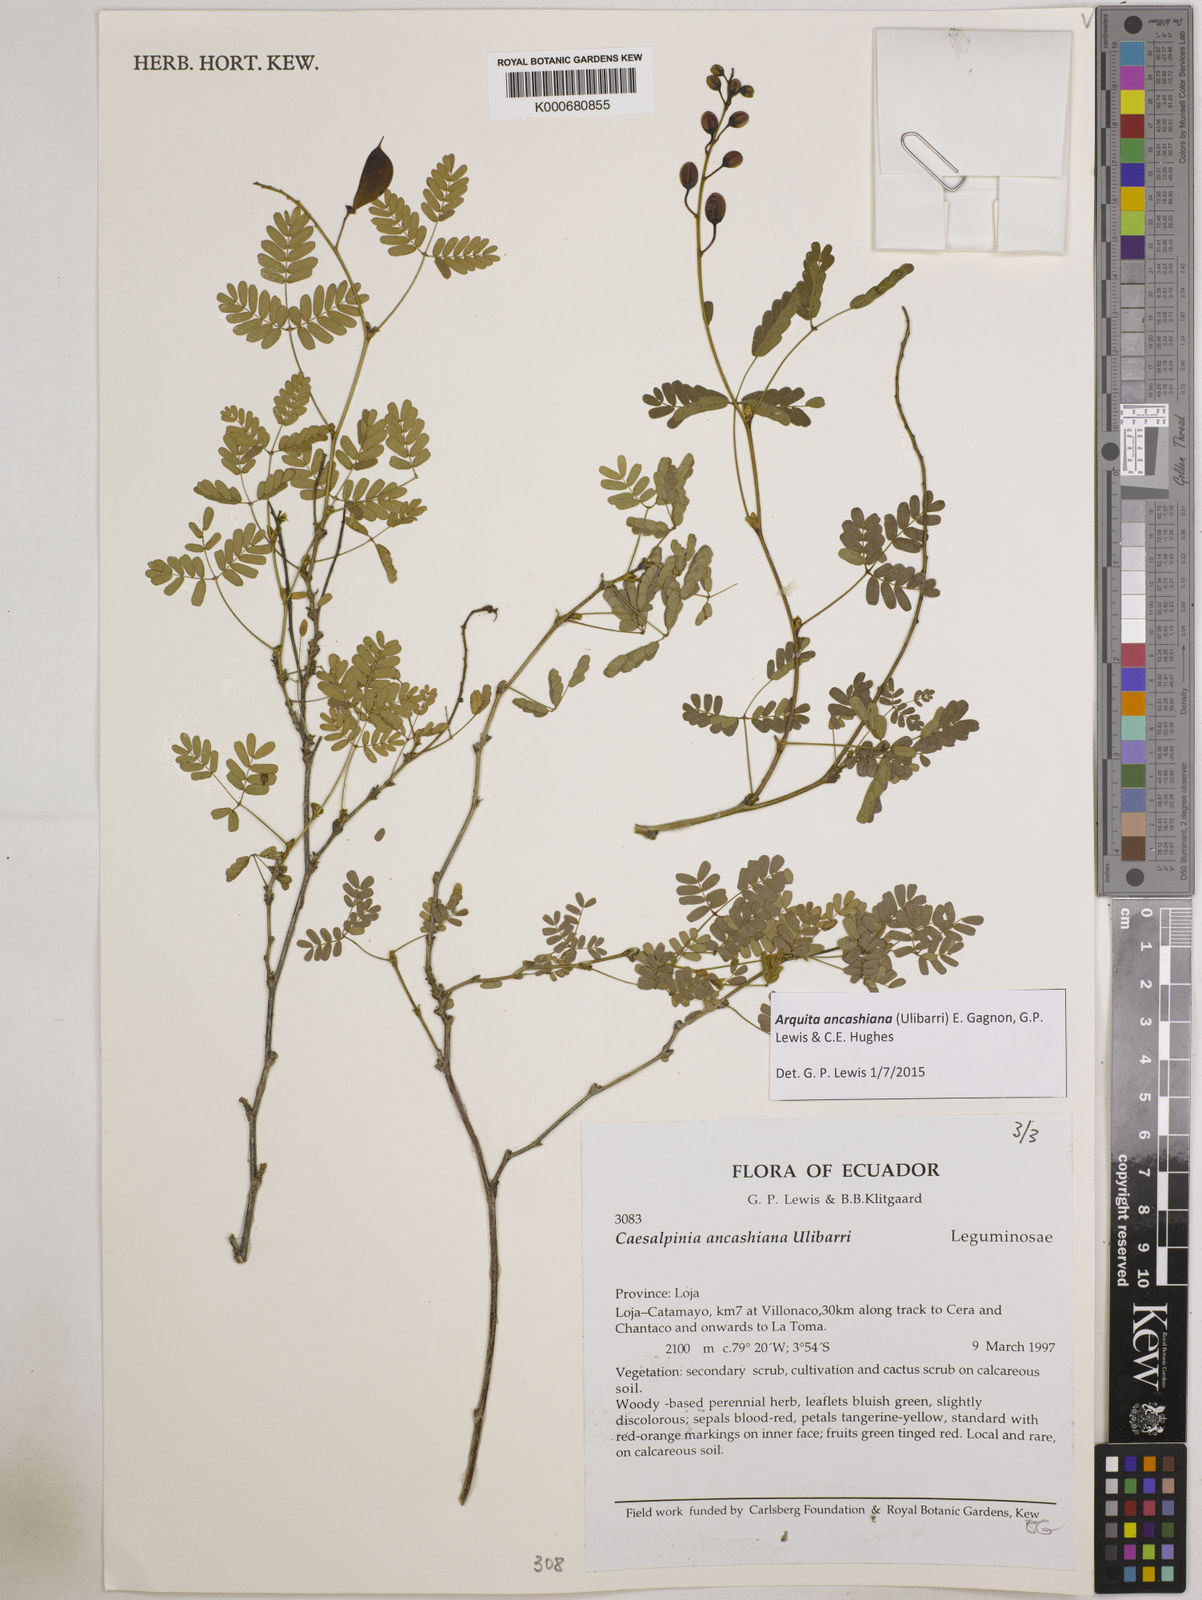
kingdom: Plantae
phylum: Tracheophyta
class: Magnoliopsida
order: Fabales
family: Fabaceae
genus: Arquita
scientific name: Arquita ancashiana
